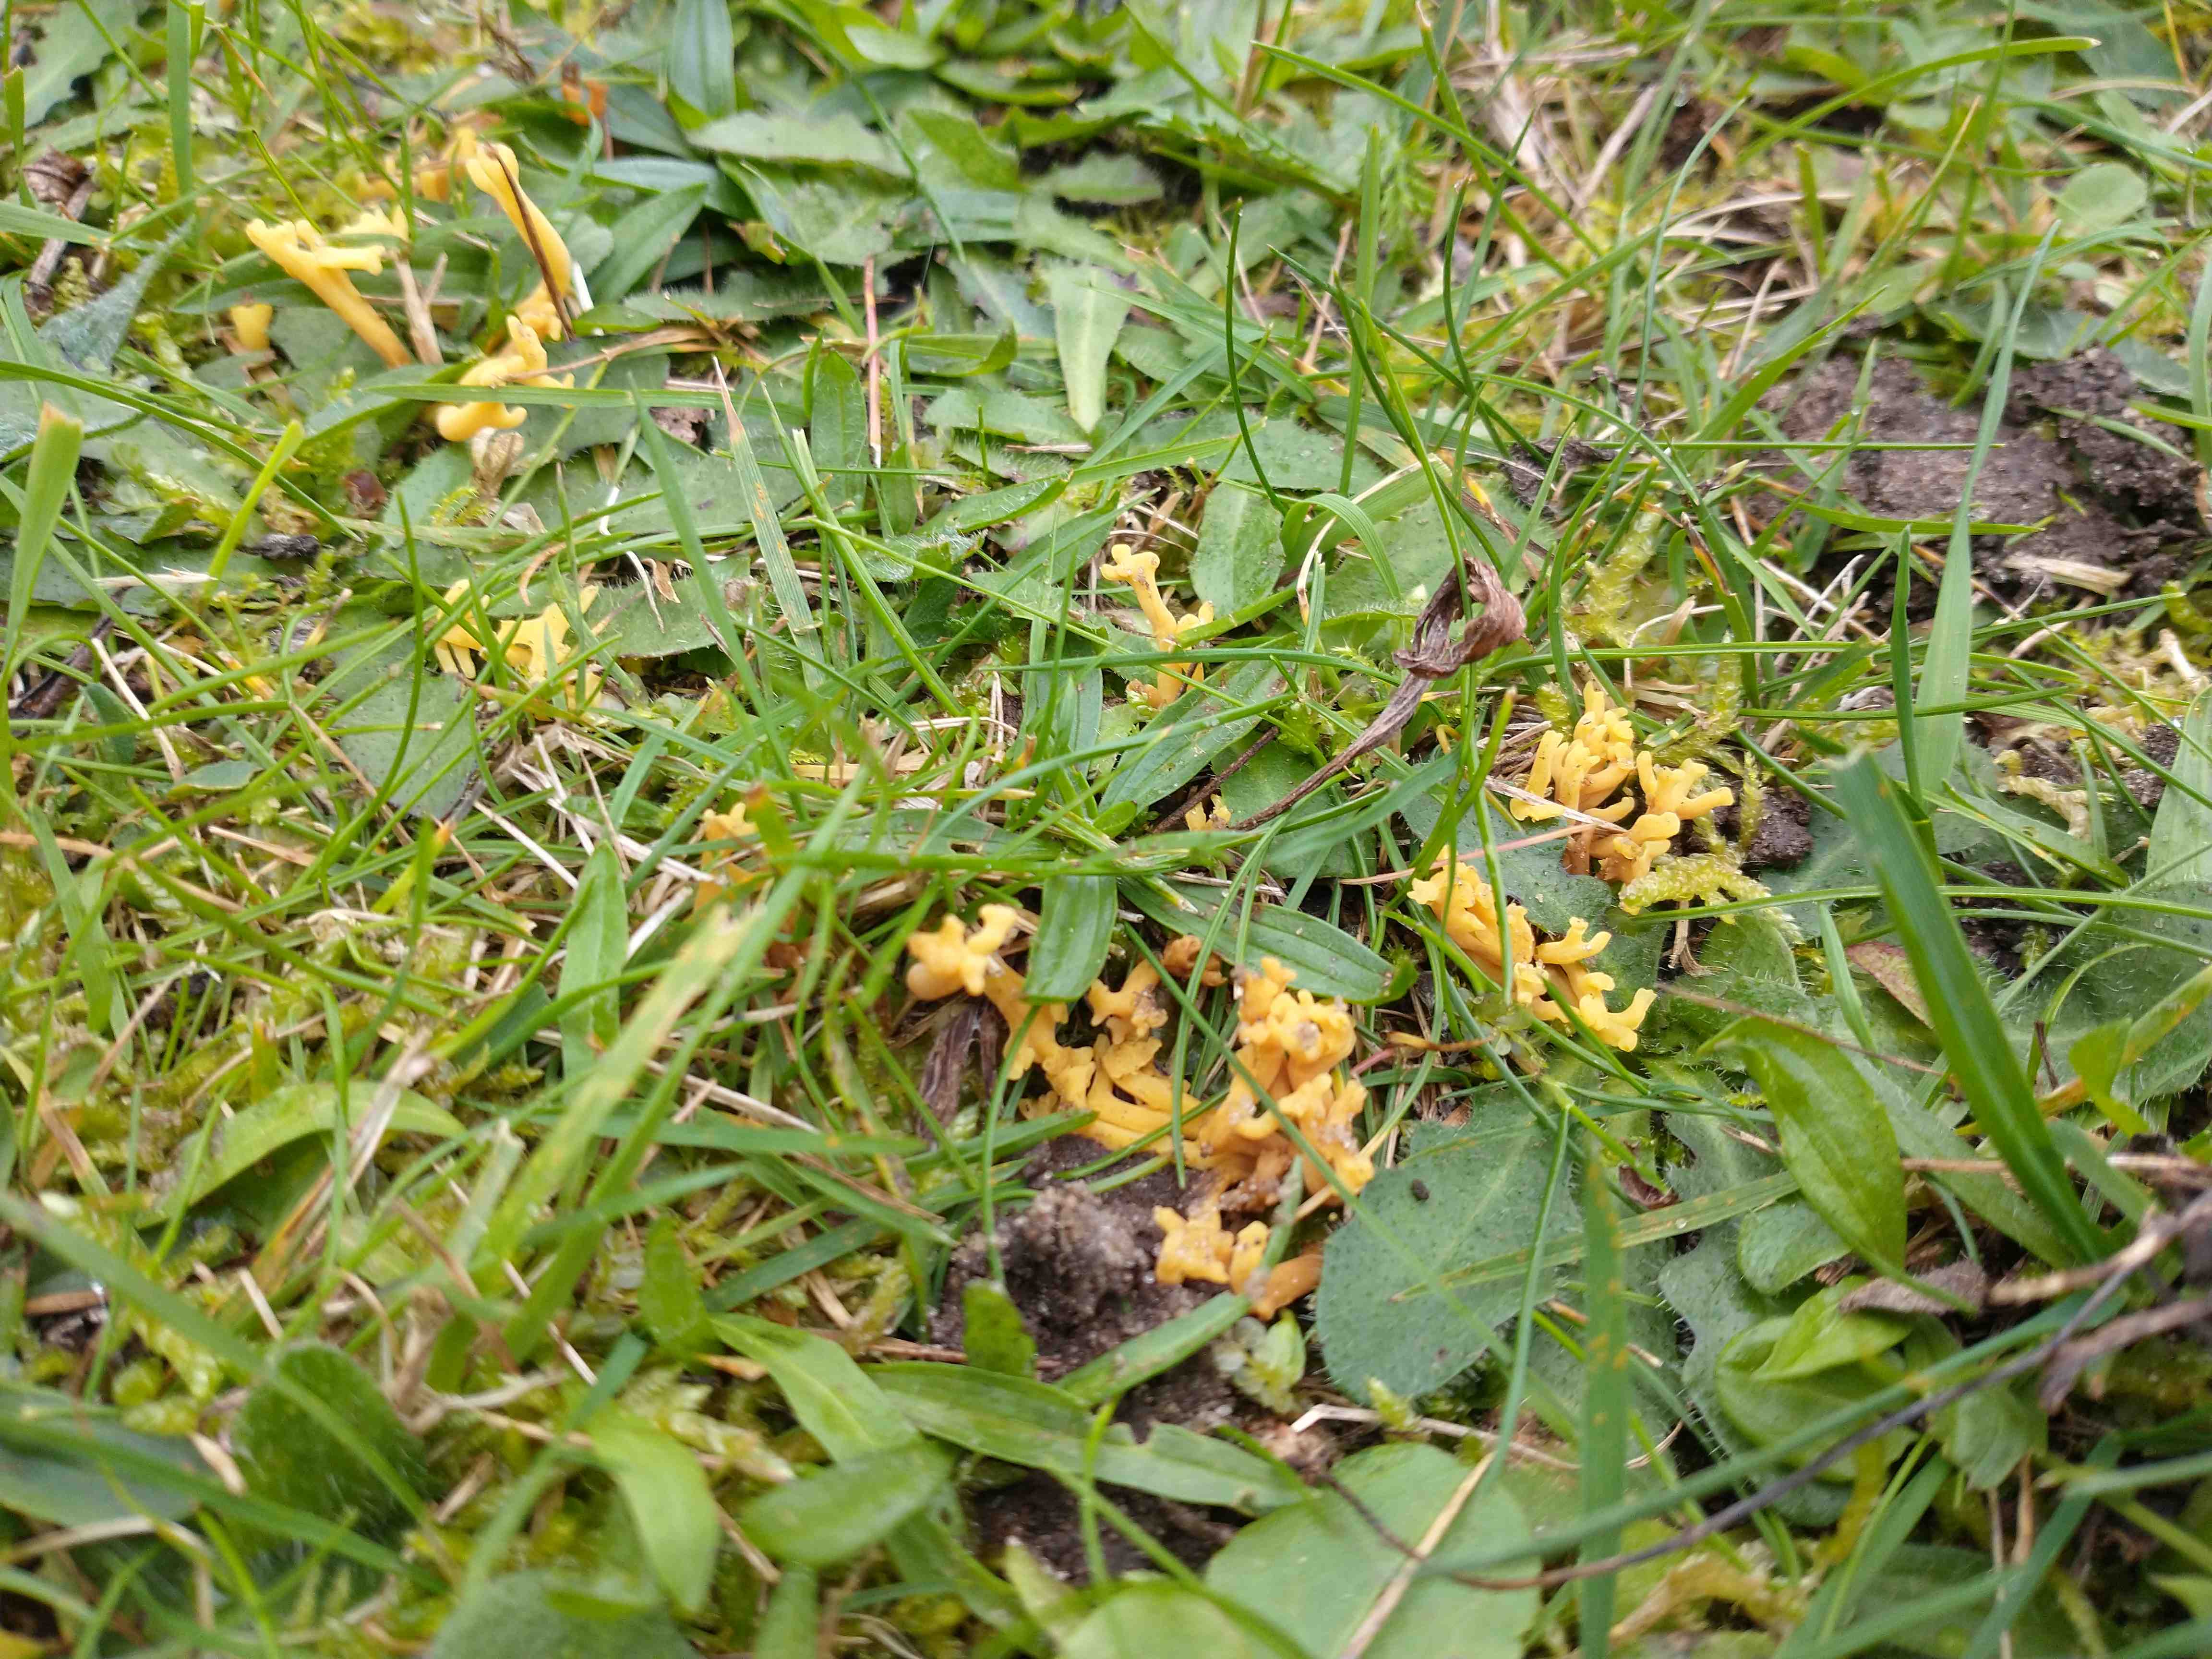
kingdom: Fungi
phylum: Basidiomycota
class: Agaricomycetes
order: Agaricales
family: Clavariaceae
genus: Clavulinopsis
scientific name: Clavulinopsis corniculata
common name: eng-køllesvamp
